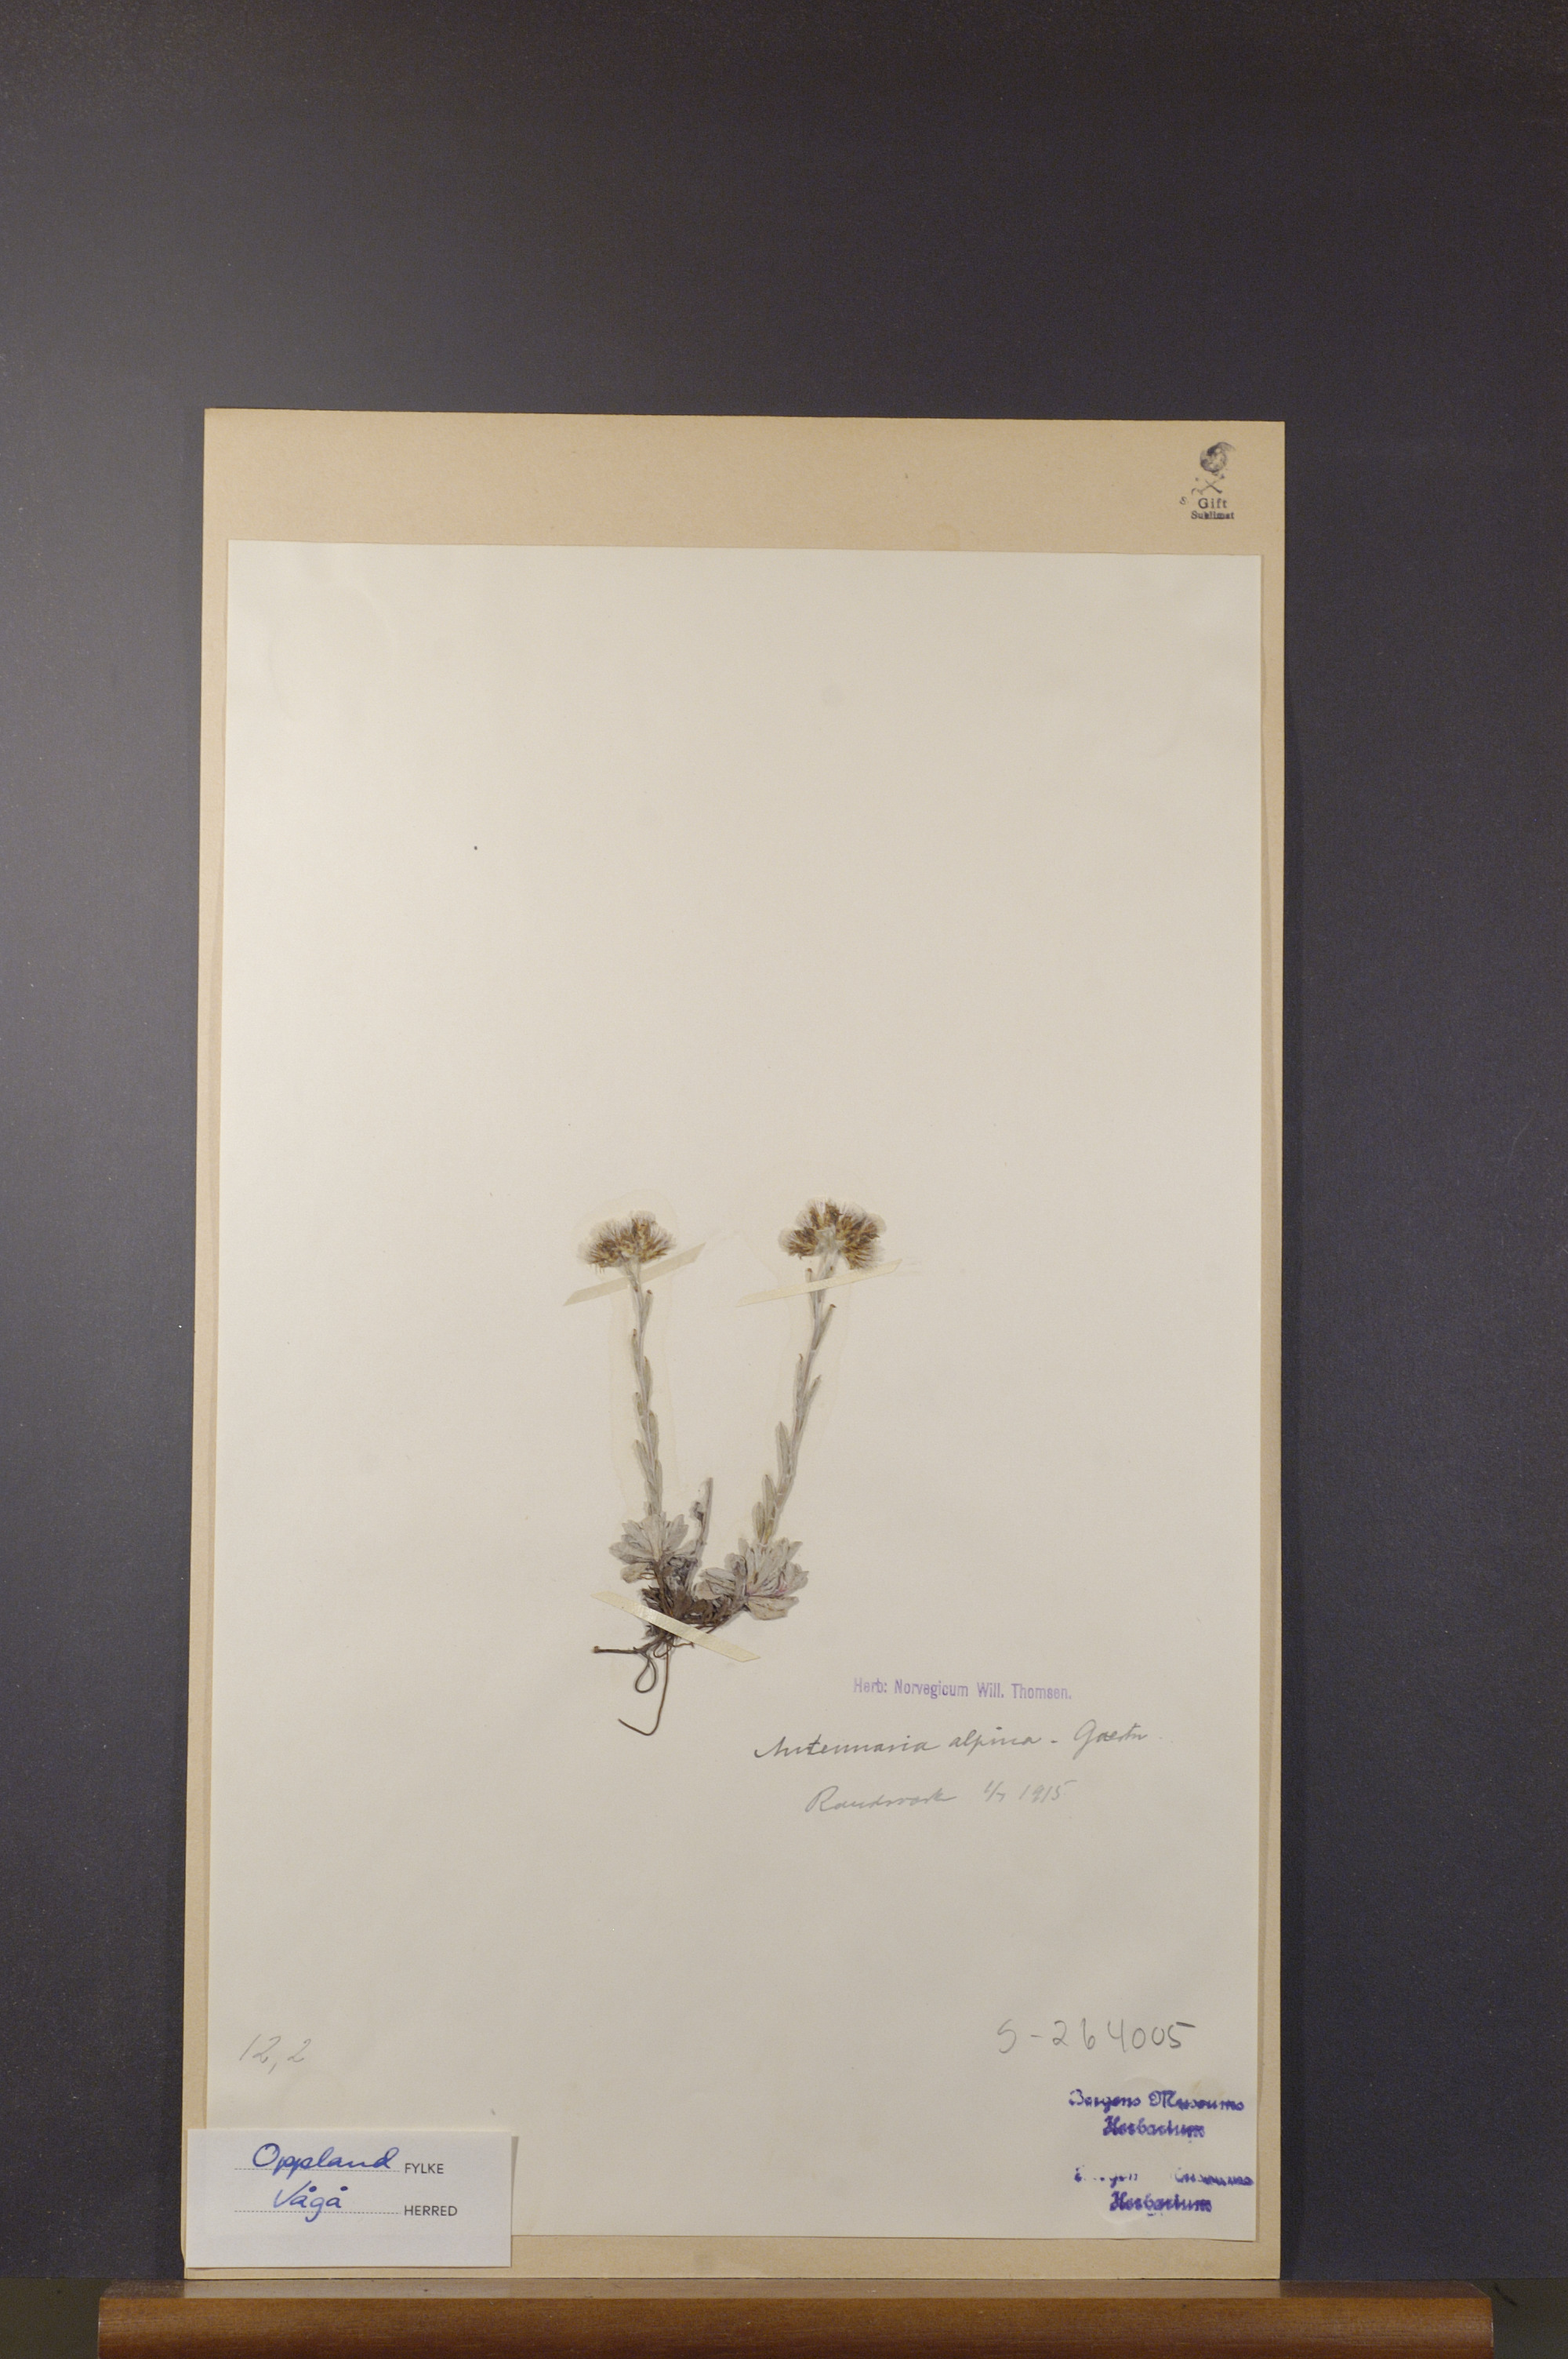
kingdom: Plantae
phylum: Tracheophyta
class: Magnoliopsida
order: Asterales
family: Asteraceae
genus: Antennaria
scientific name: Antennaria alpina
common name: Alpine pussytoes
